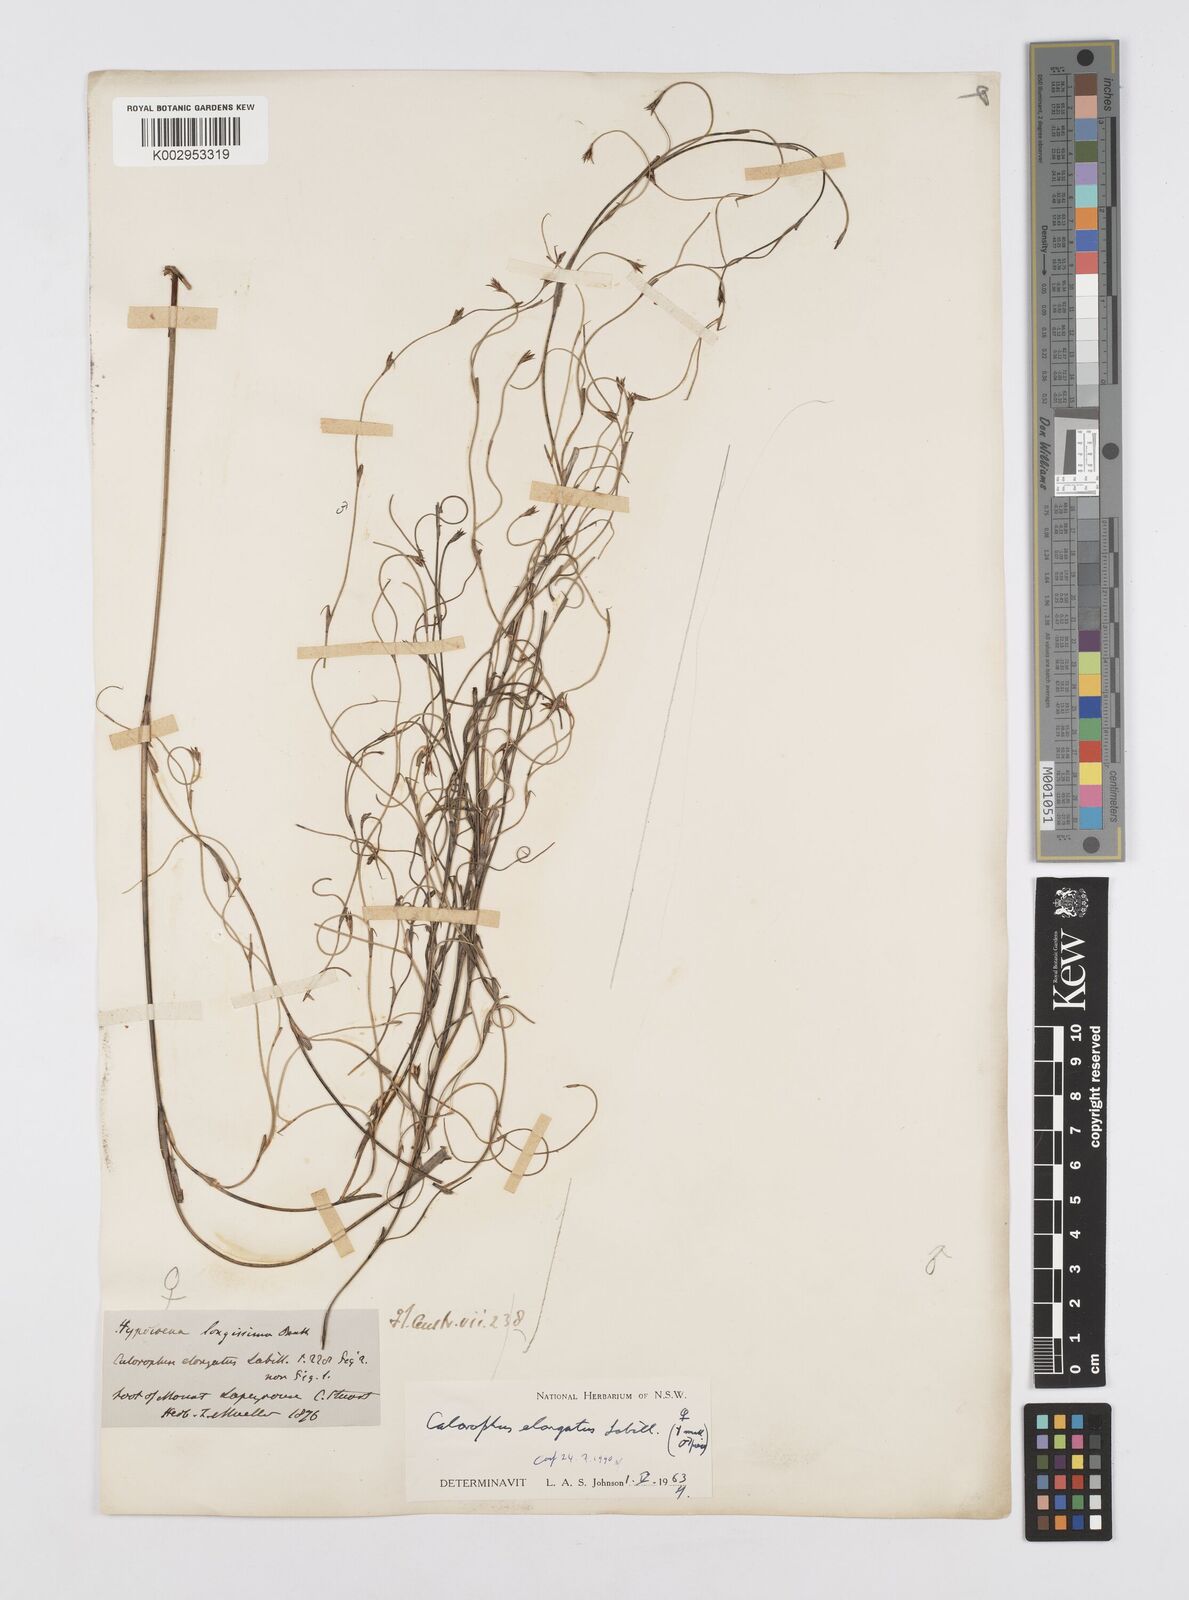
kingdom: Plantae
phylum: Tracheophyta
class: Liliopsida
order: Poales
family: Restionaceae
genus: Calorophus
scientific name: Calorophus elongatus
